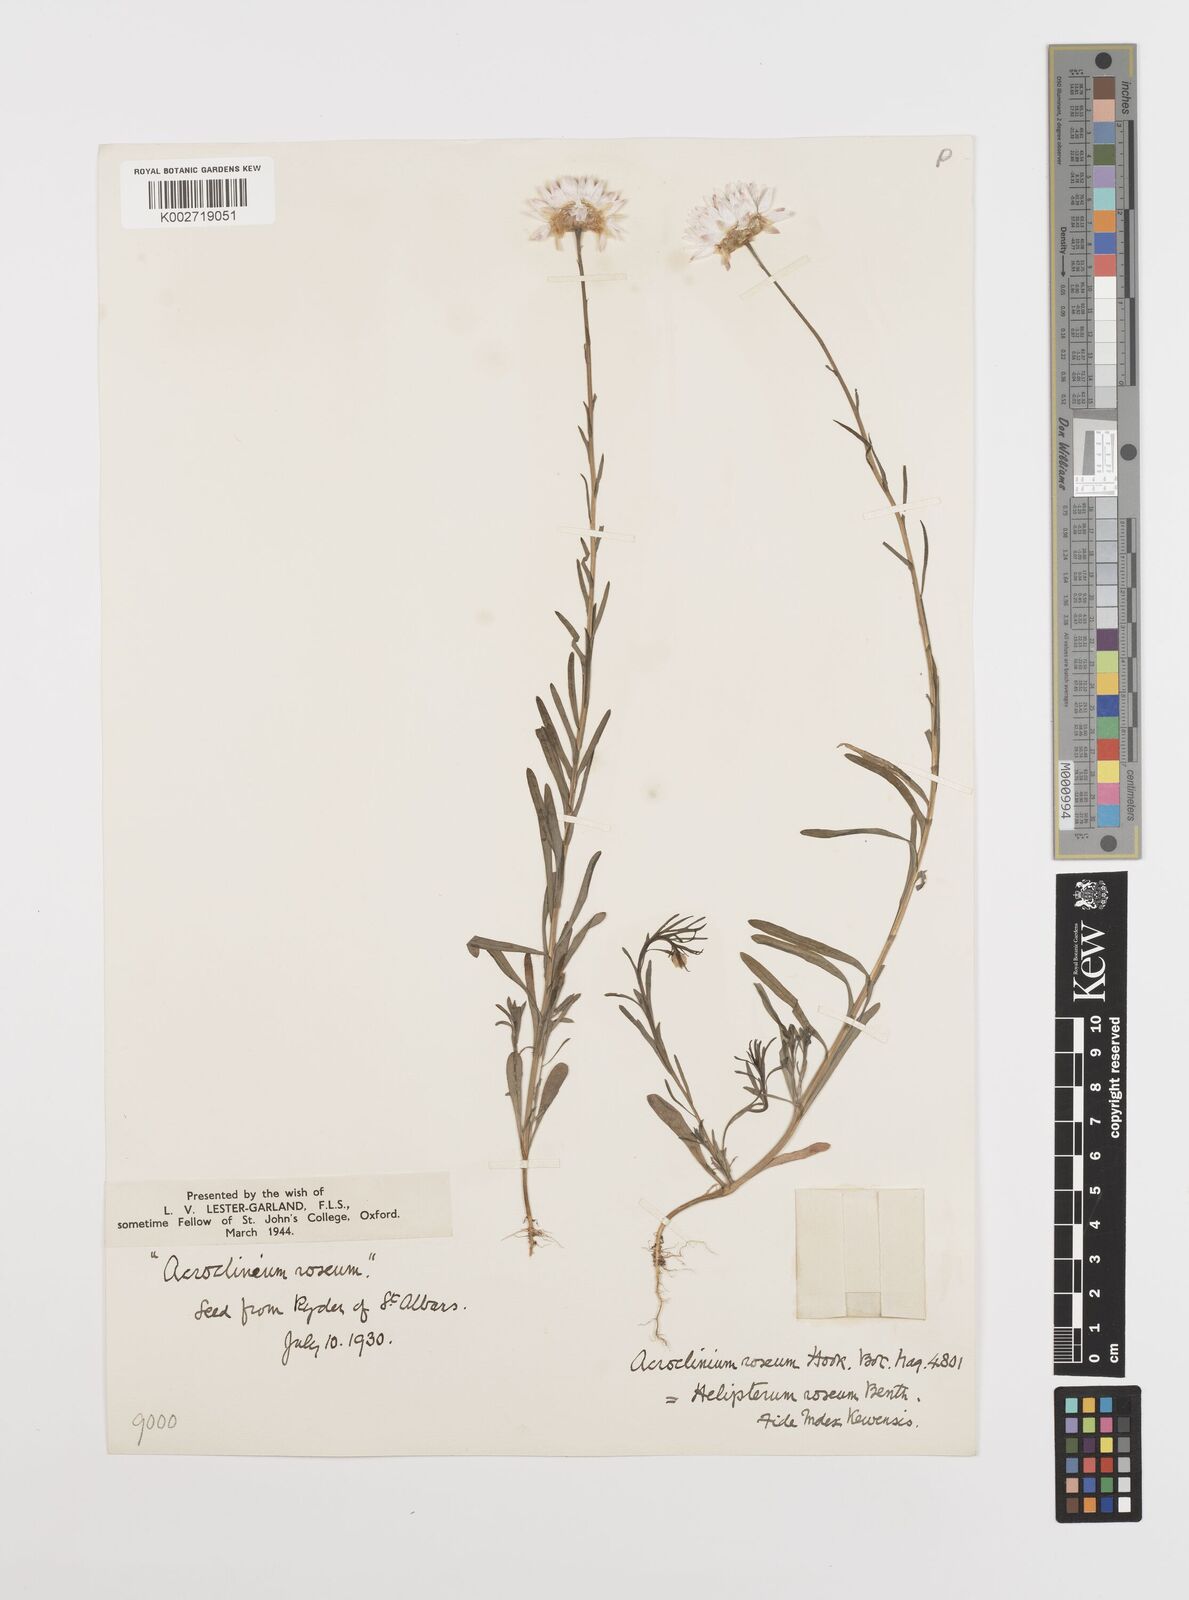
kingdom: Plantae
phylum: Tracheophyta
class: Magnoliopsida
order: Asterales
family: Asteraceae
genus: Rhodanthe
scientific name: Rhodanthe chlorocephala
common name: Rosy sunray
